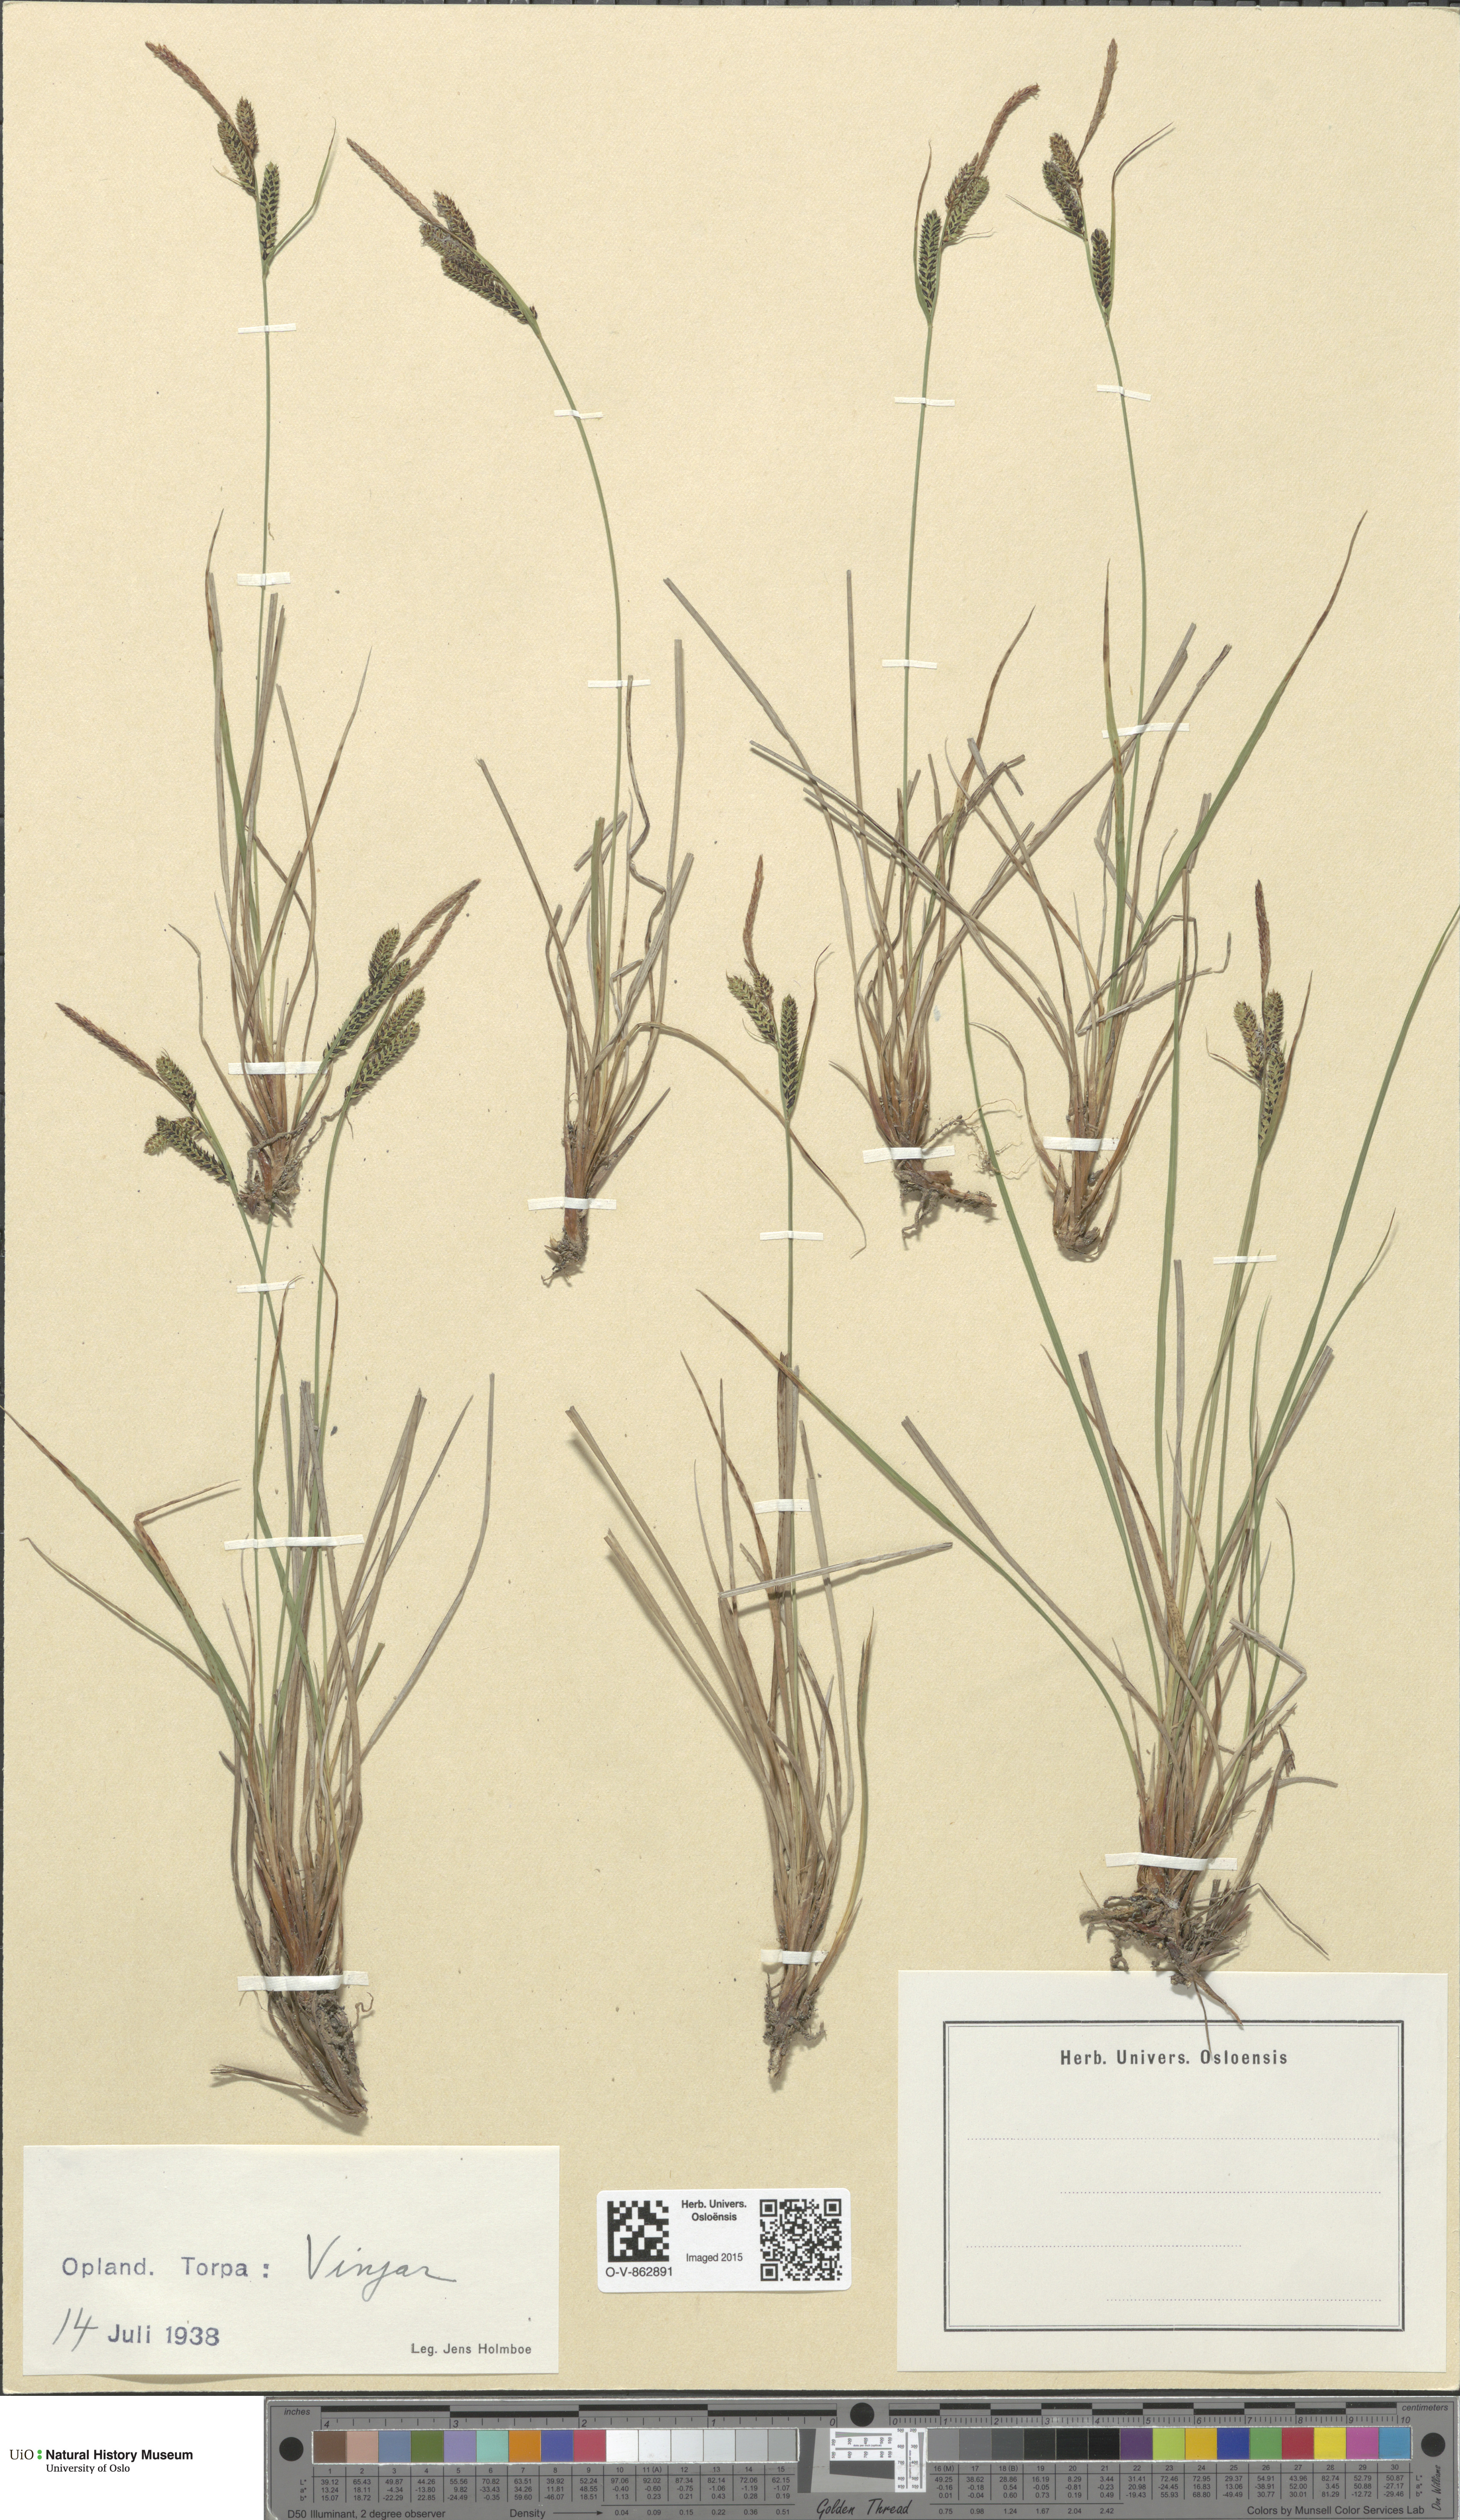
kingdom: Plantae
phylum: Tracheophyta
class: Liliopsida
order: Poales
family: Cyperaceae
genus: Carex
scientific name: Carex nigra
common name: Common sedge
